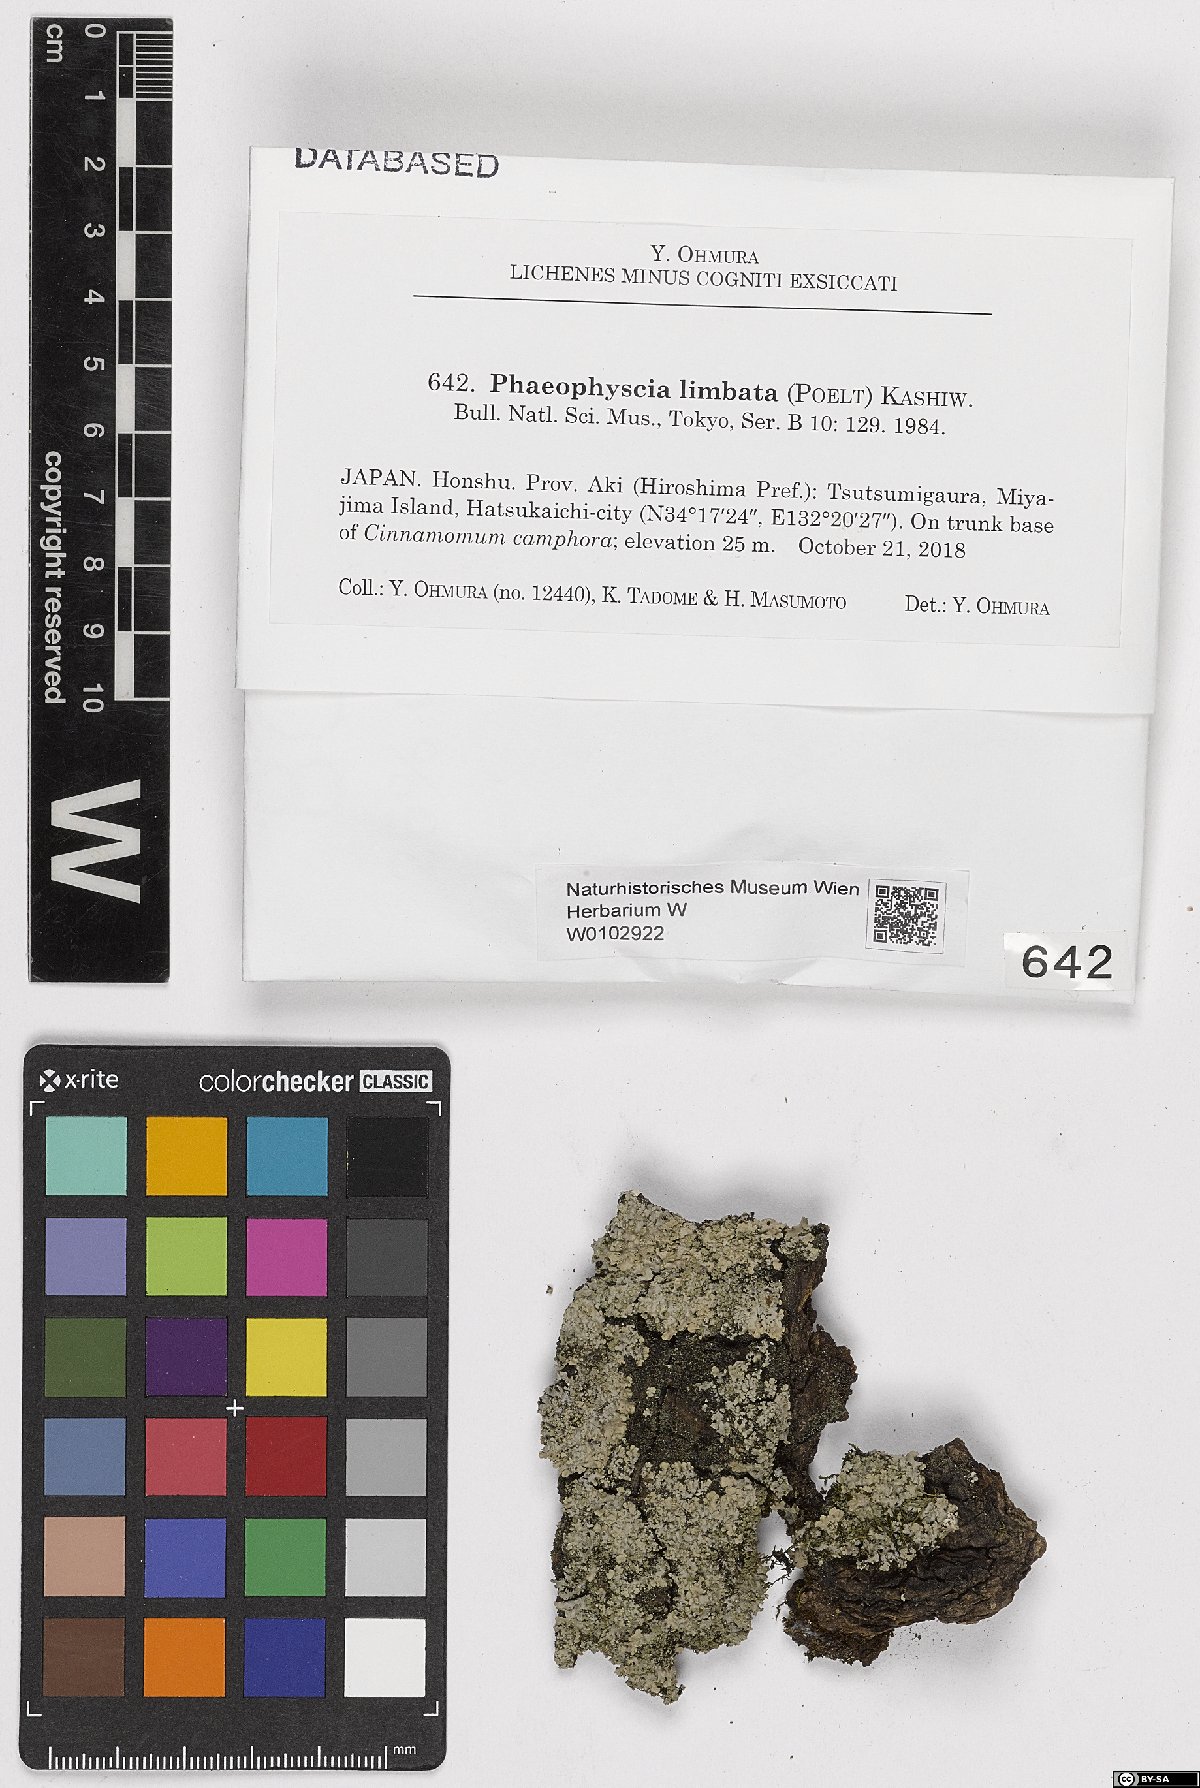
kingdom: Fungi
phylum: Ascomycota
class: Lecanoromycetes
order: Caliciales
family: Physciaceae
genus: Phaeophyscia
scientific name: Phaeophyscia limbata
